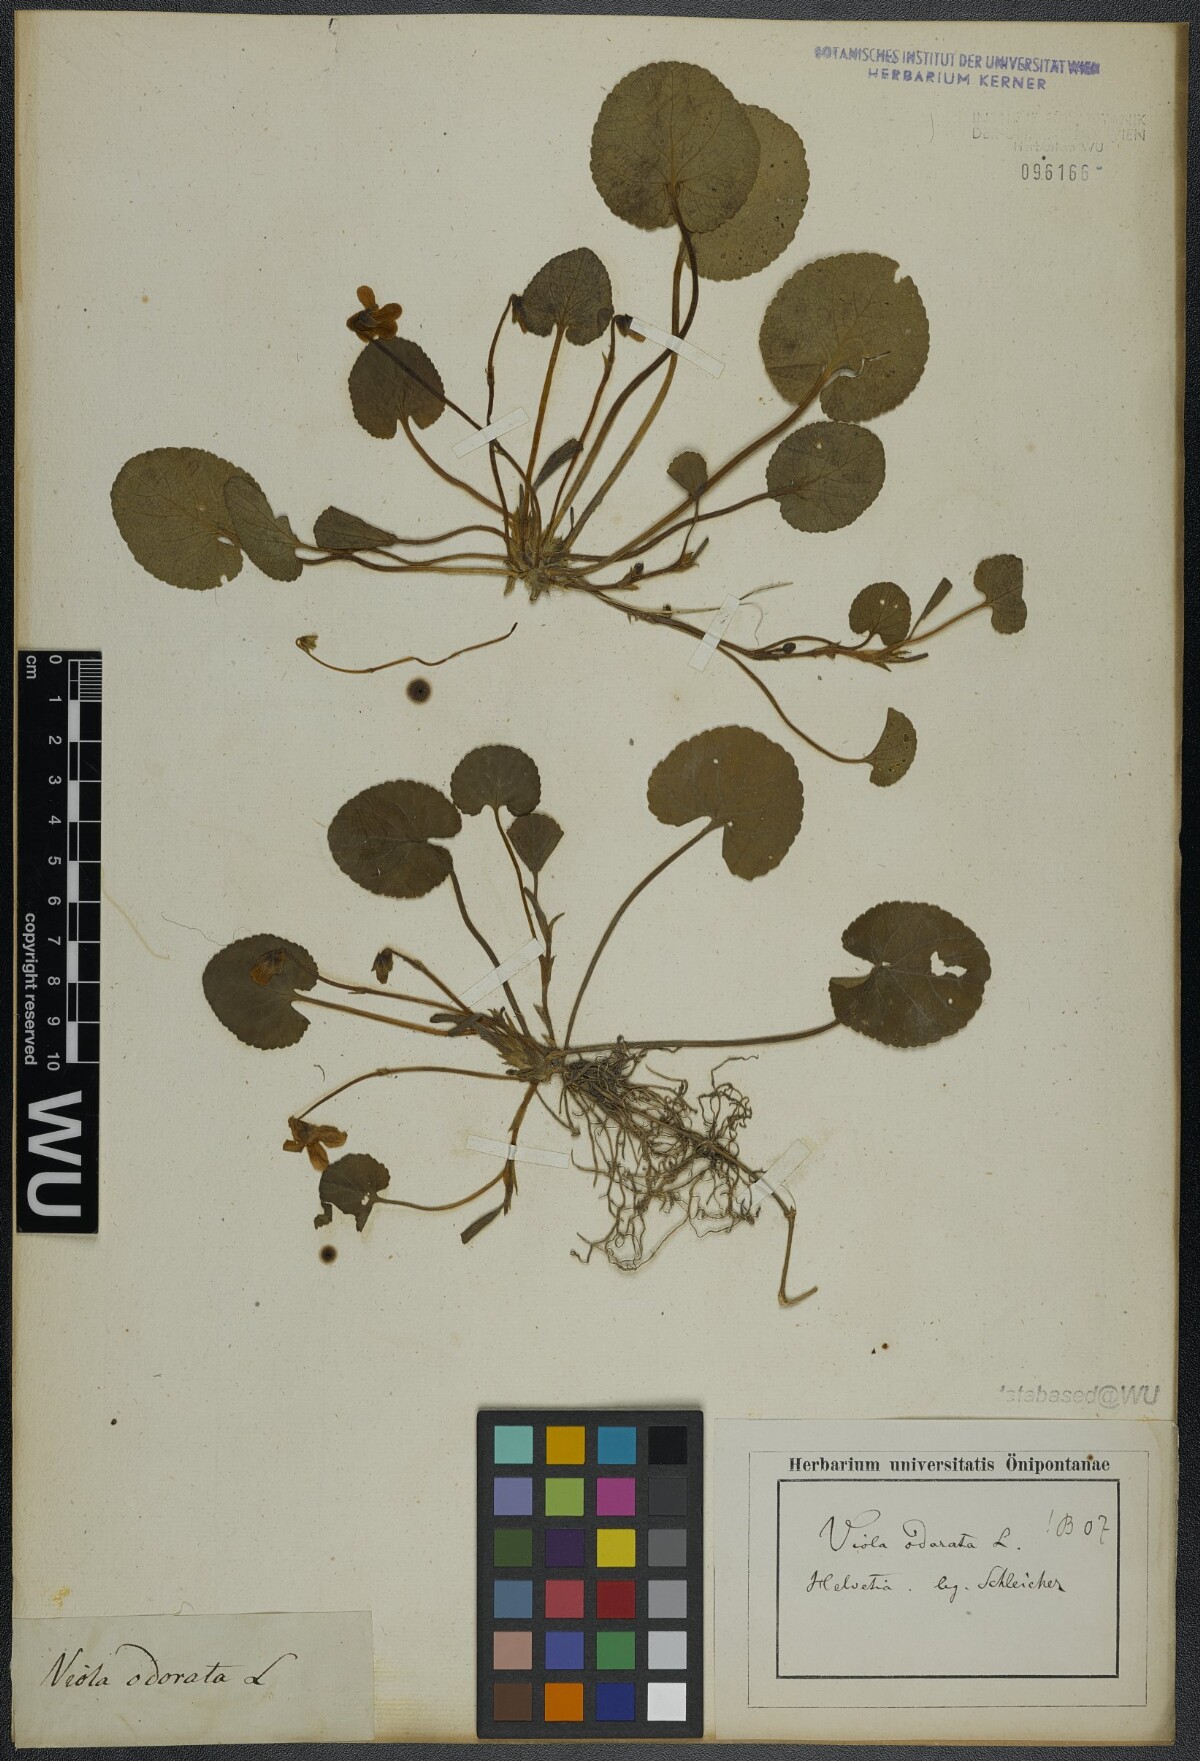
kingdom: Plantae
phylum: Tracheophyta
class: Magnoliopsida
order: Malpighiales
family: Violaceae
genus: Viola
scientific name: Viola odorata
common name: Sweet violet
